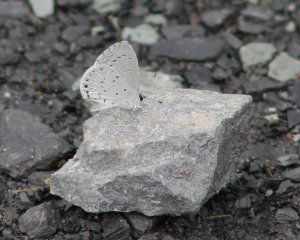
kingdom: Animalia
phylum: Arthropoda
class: Insecta
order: Lepidoptera
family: Lycaenidae
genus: Cyaniris
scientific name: Cyaniris neglecta
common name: Summer Azure
